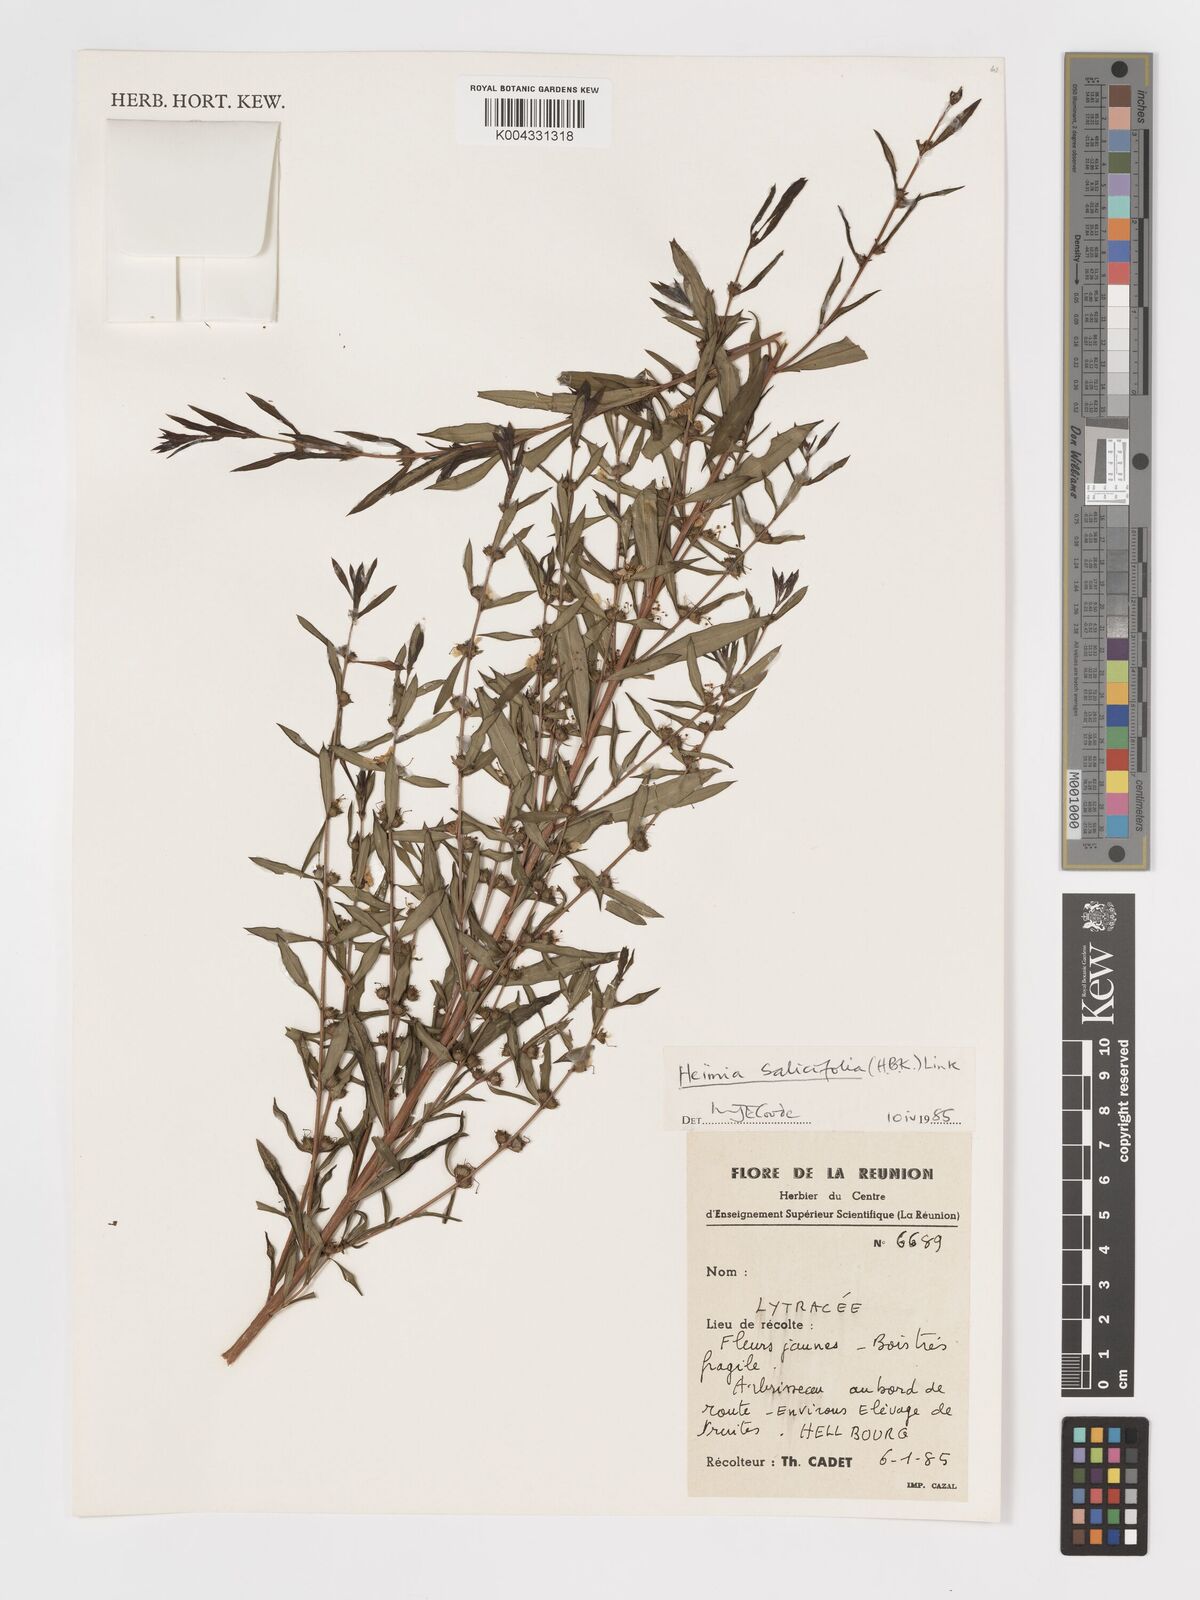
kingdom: Plantae
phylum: Tracheophyta
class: Magnoliopsida
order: Myrtales
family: Lythraceae
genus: Heimia
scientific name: Heimia salicifolia
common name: Willow-leaf heimia
